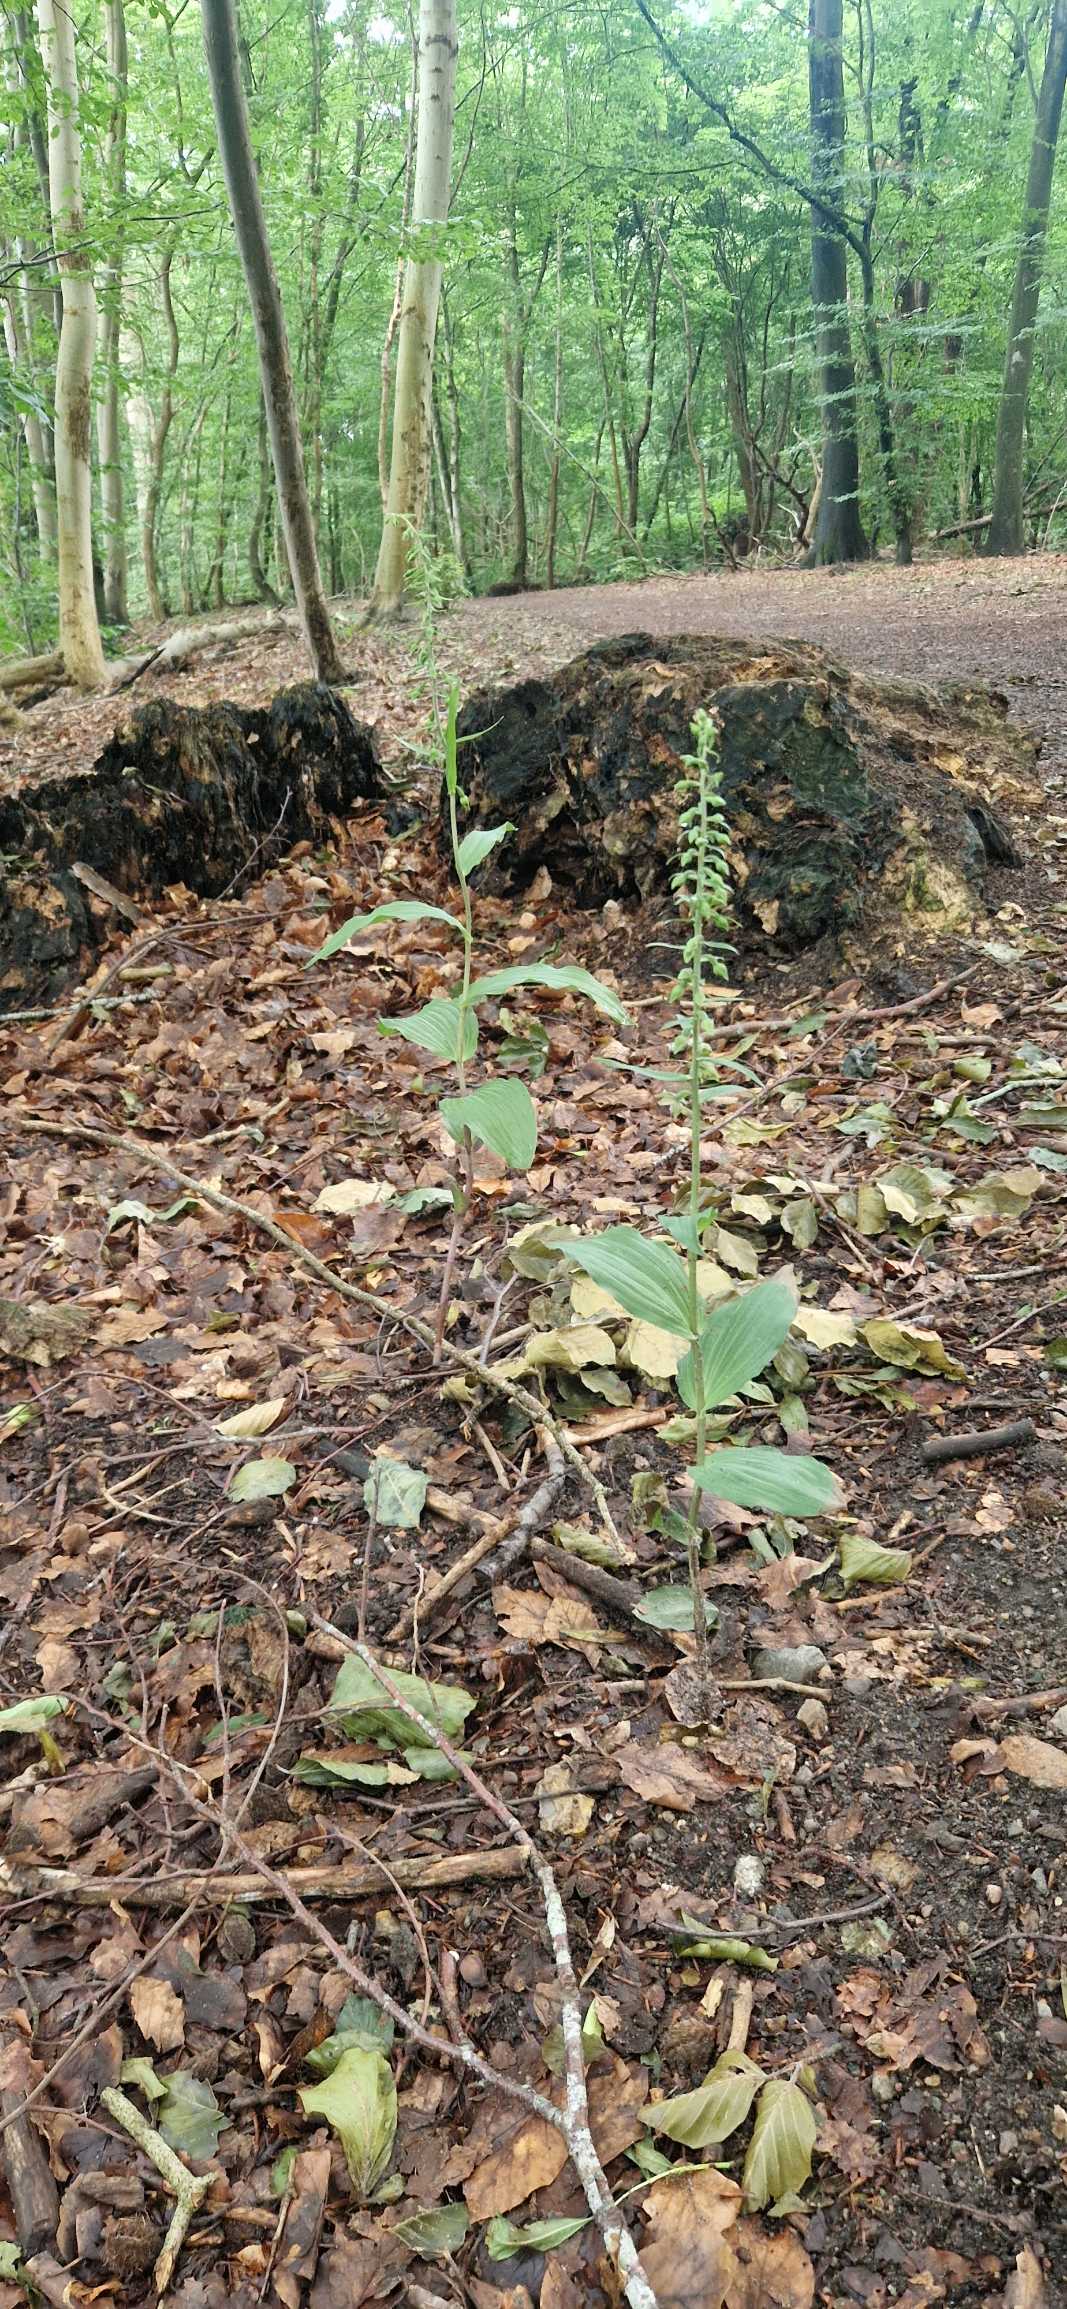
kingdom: Plantae
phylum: Tracheophyta
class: Liliopsida
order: Asparagales
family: Orchidaceae
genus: Epipactis
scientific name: Epipactis helleborine
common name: Skov-hullæbe
